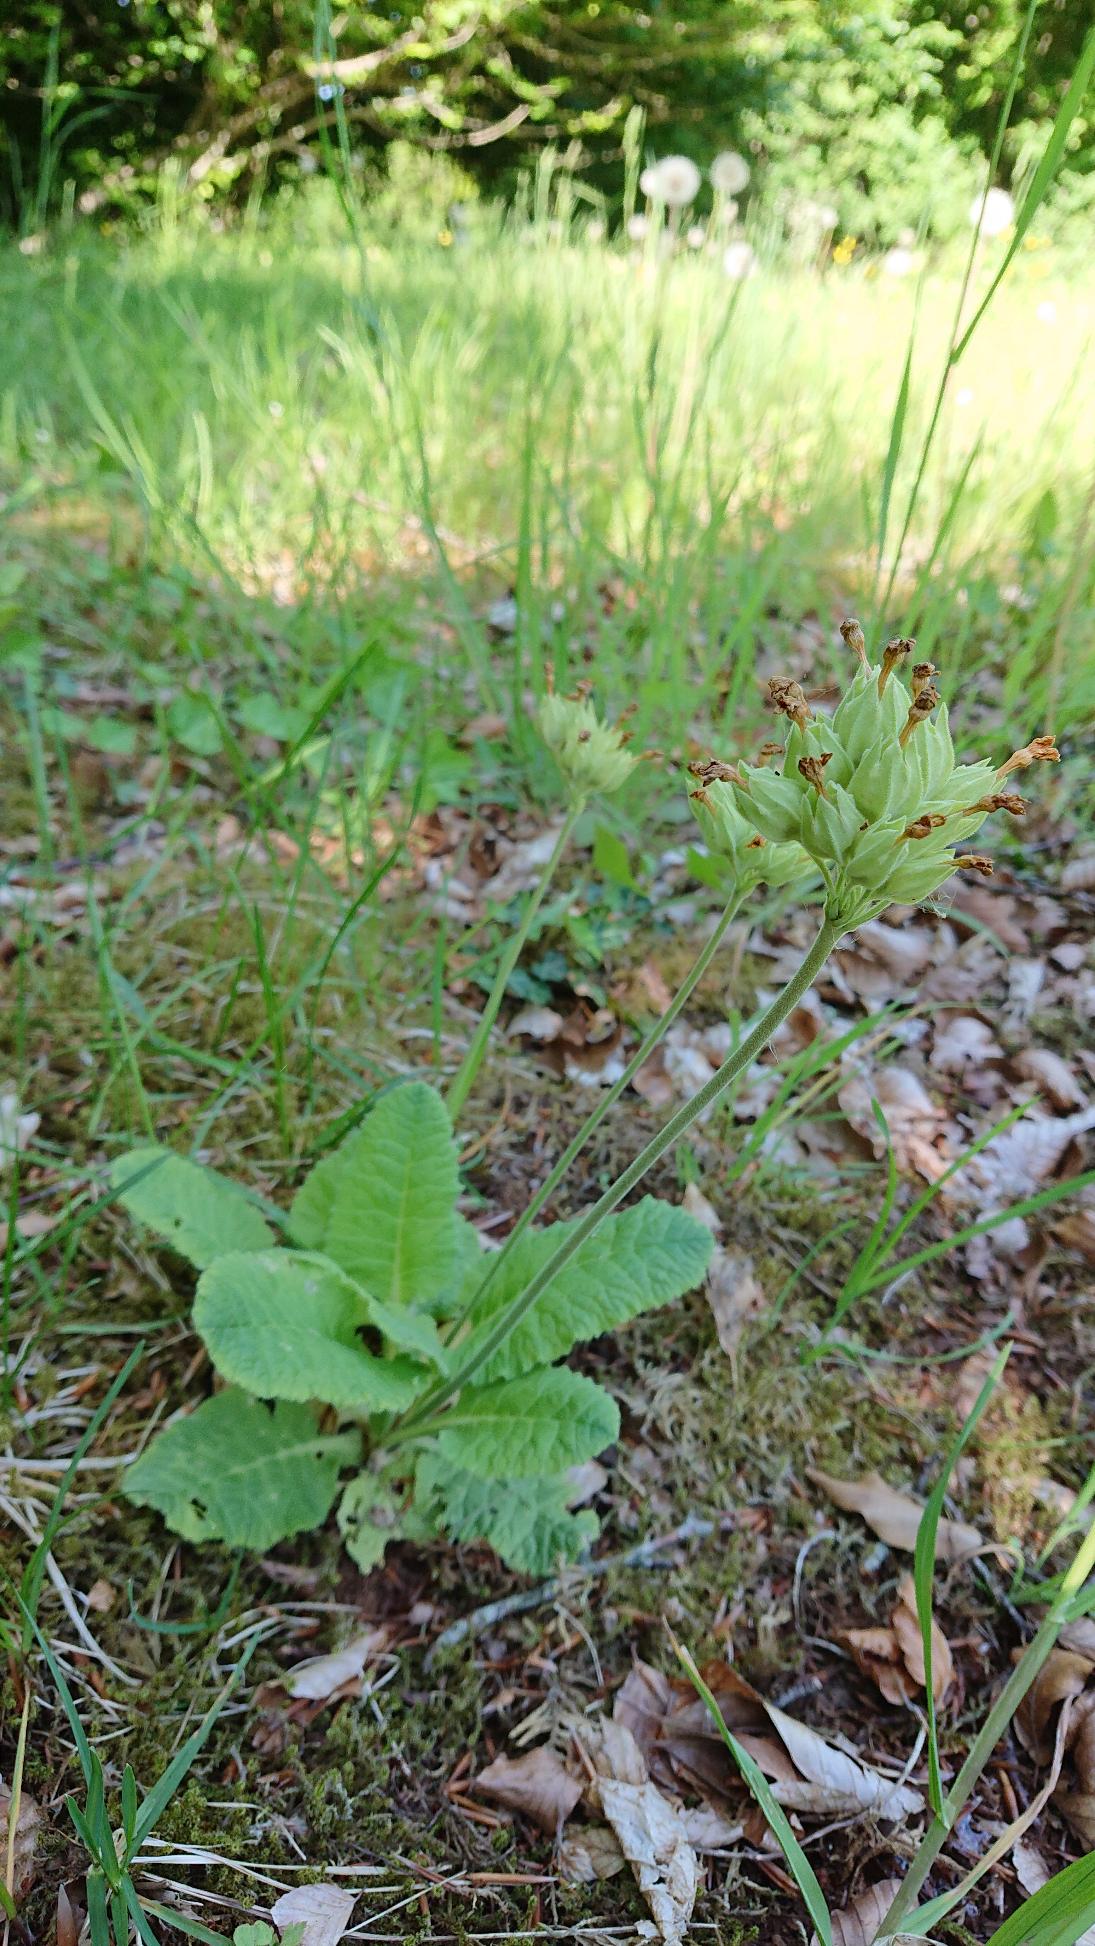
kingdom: Plantae
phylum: Tracheophyta
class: Magnoliopsida
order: Ericales
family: Primulaceae
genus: Primula
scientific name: Primula veris
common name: Hulkravet kodriver
